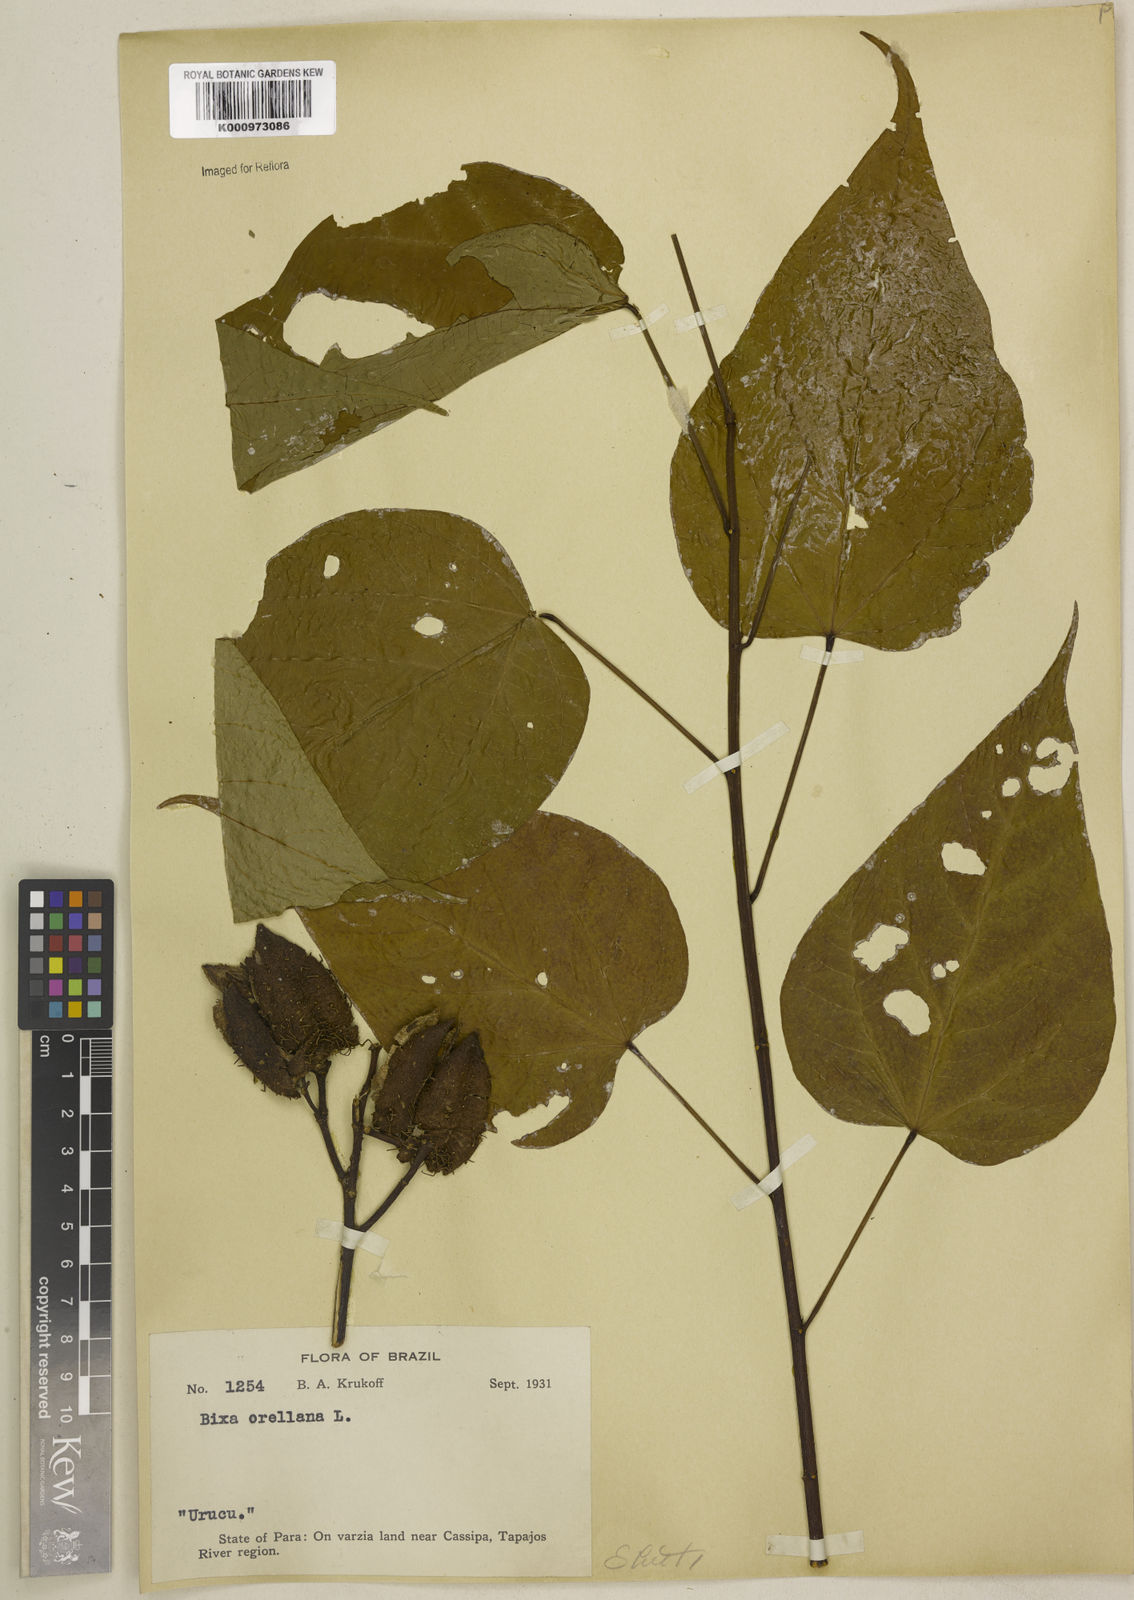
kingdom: Plantae
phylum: Tracheophyta
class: Magnoliopsida
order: Malvales
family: Bixaceae
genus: Bixa
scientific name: Bixa excelsa
